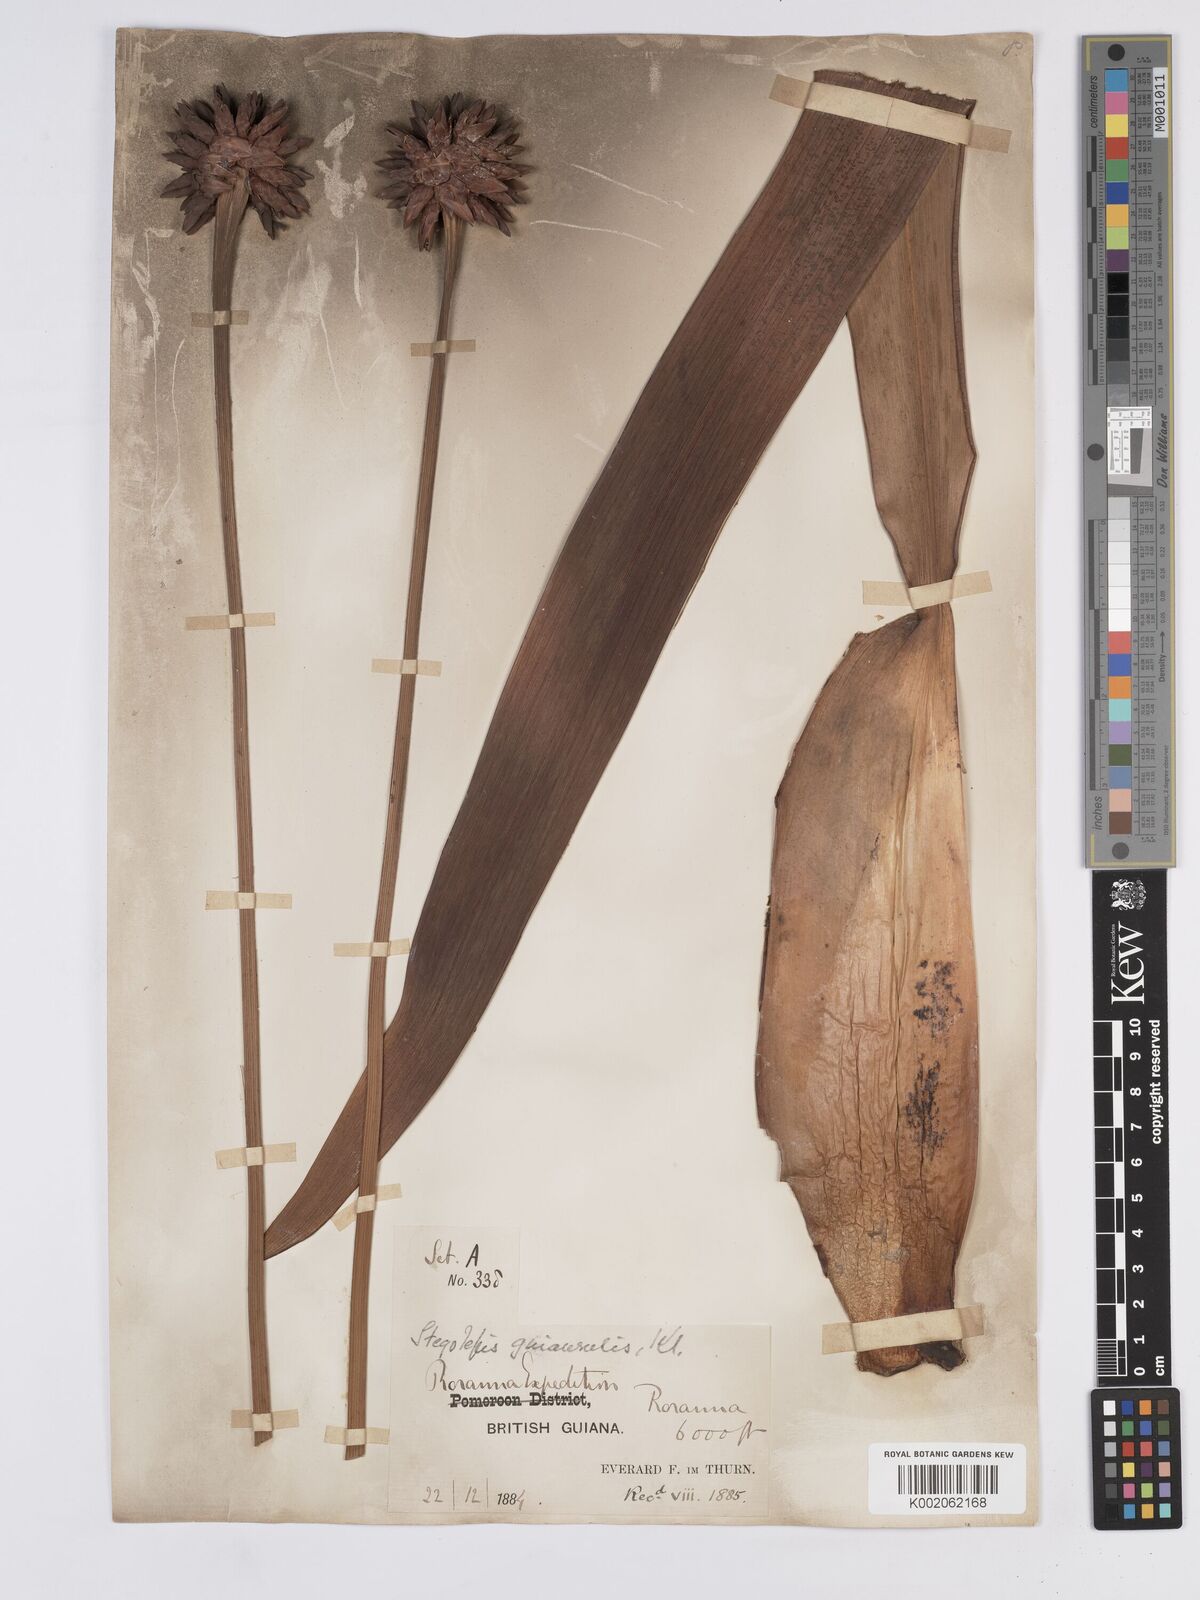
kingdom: Plantae
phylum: Tracheophyta
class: Liliopsida
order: Poales
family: Rapateaceae
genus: Stegolepis
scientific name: Stegolepis guianensis
